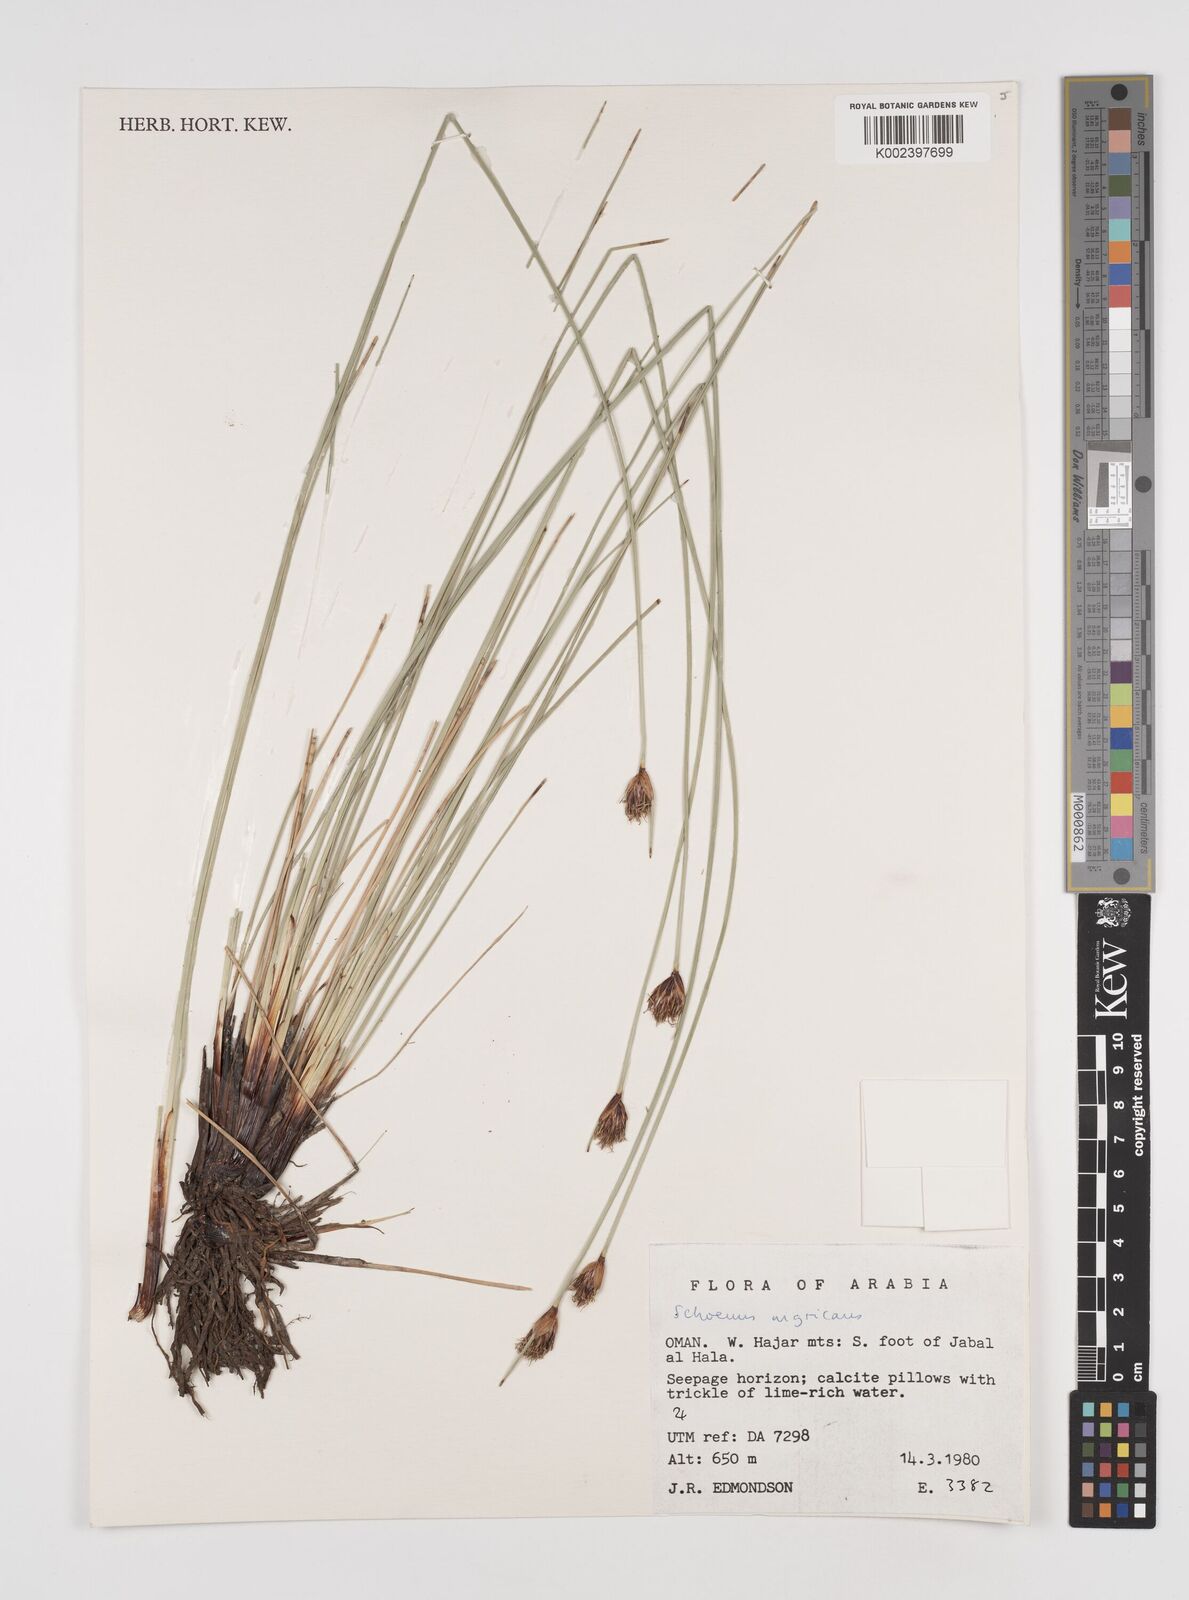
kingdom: Plantae
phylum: Tracheophyta
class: Liliopsida
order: Poales
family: Cyperaceae
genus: Schoenus
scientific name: Schoenus nigricans
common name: Black bog-rush
